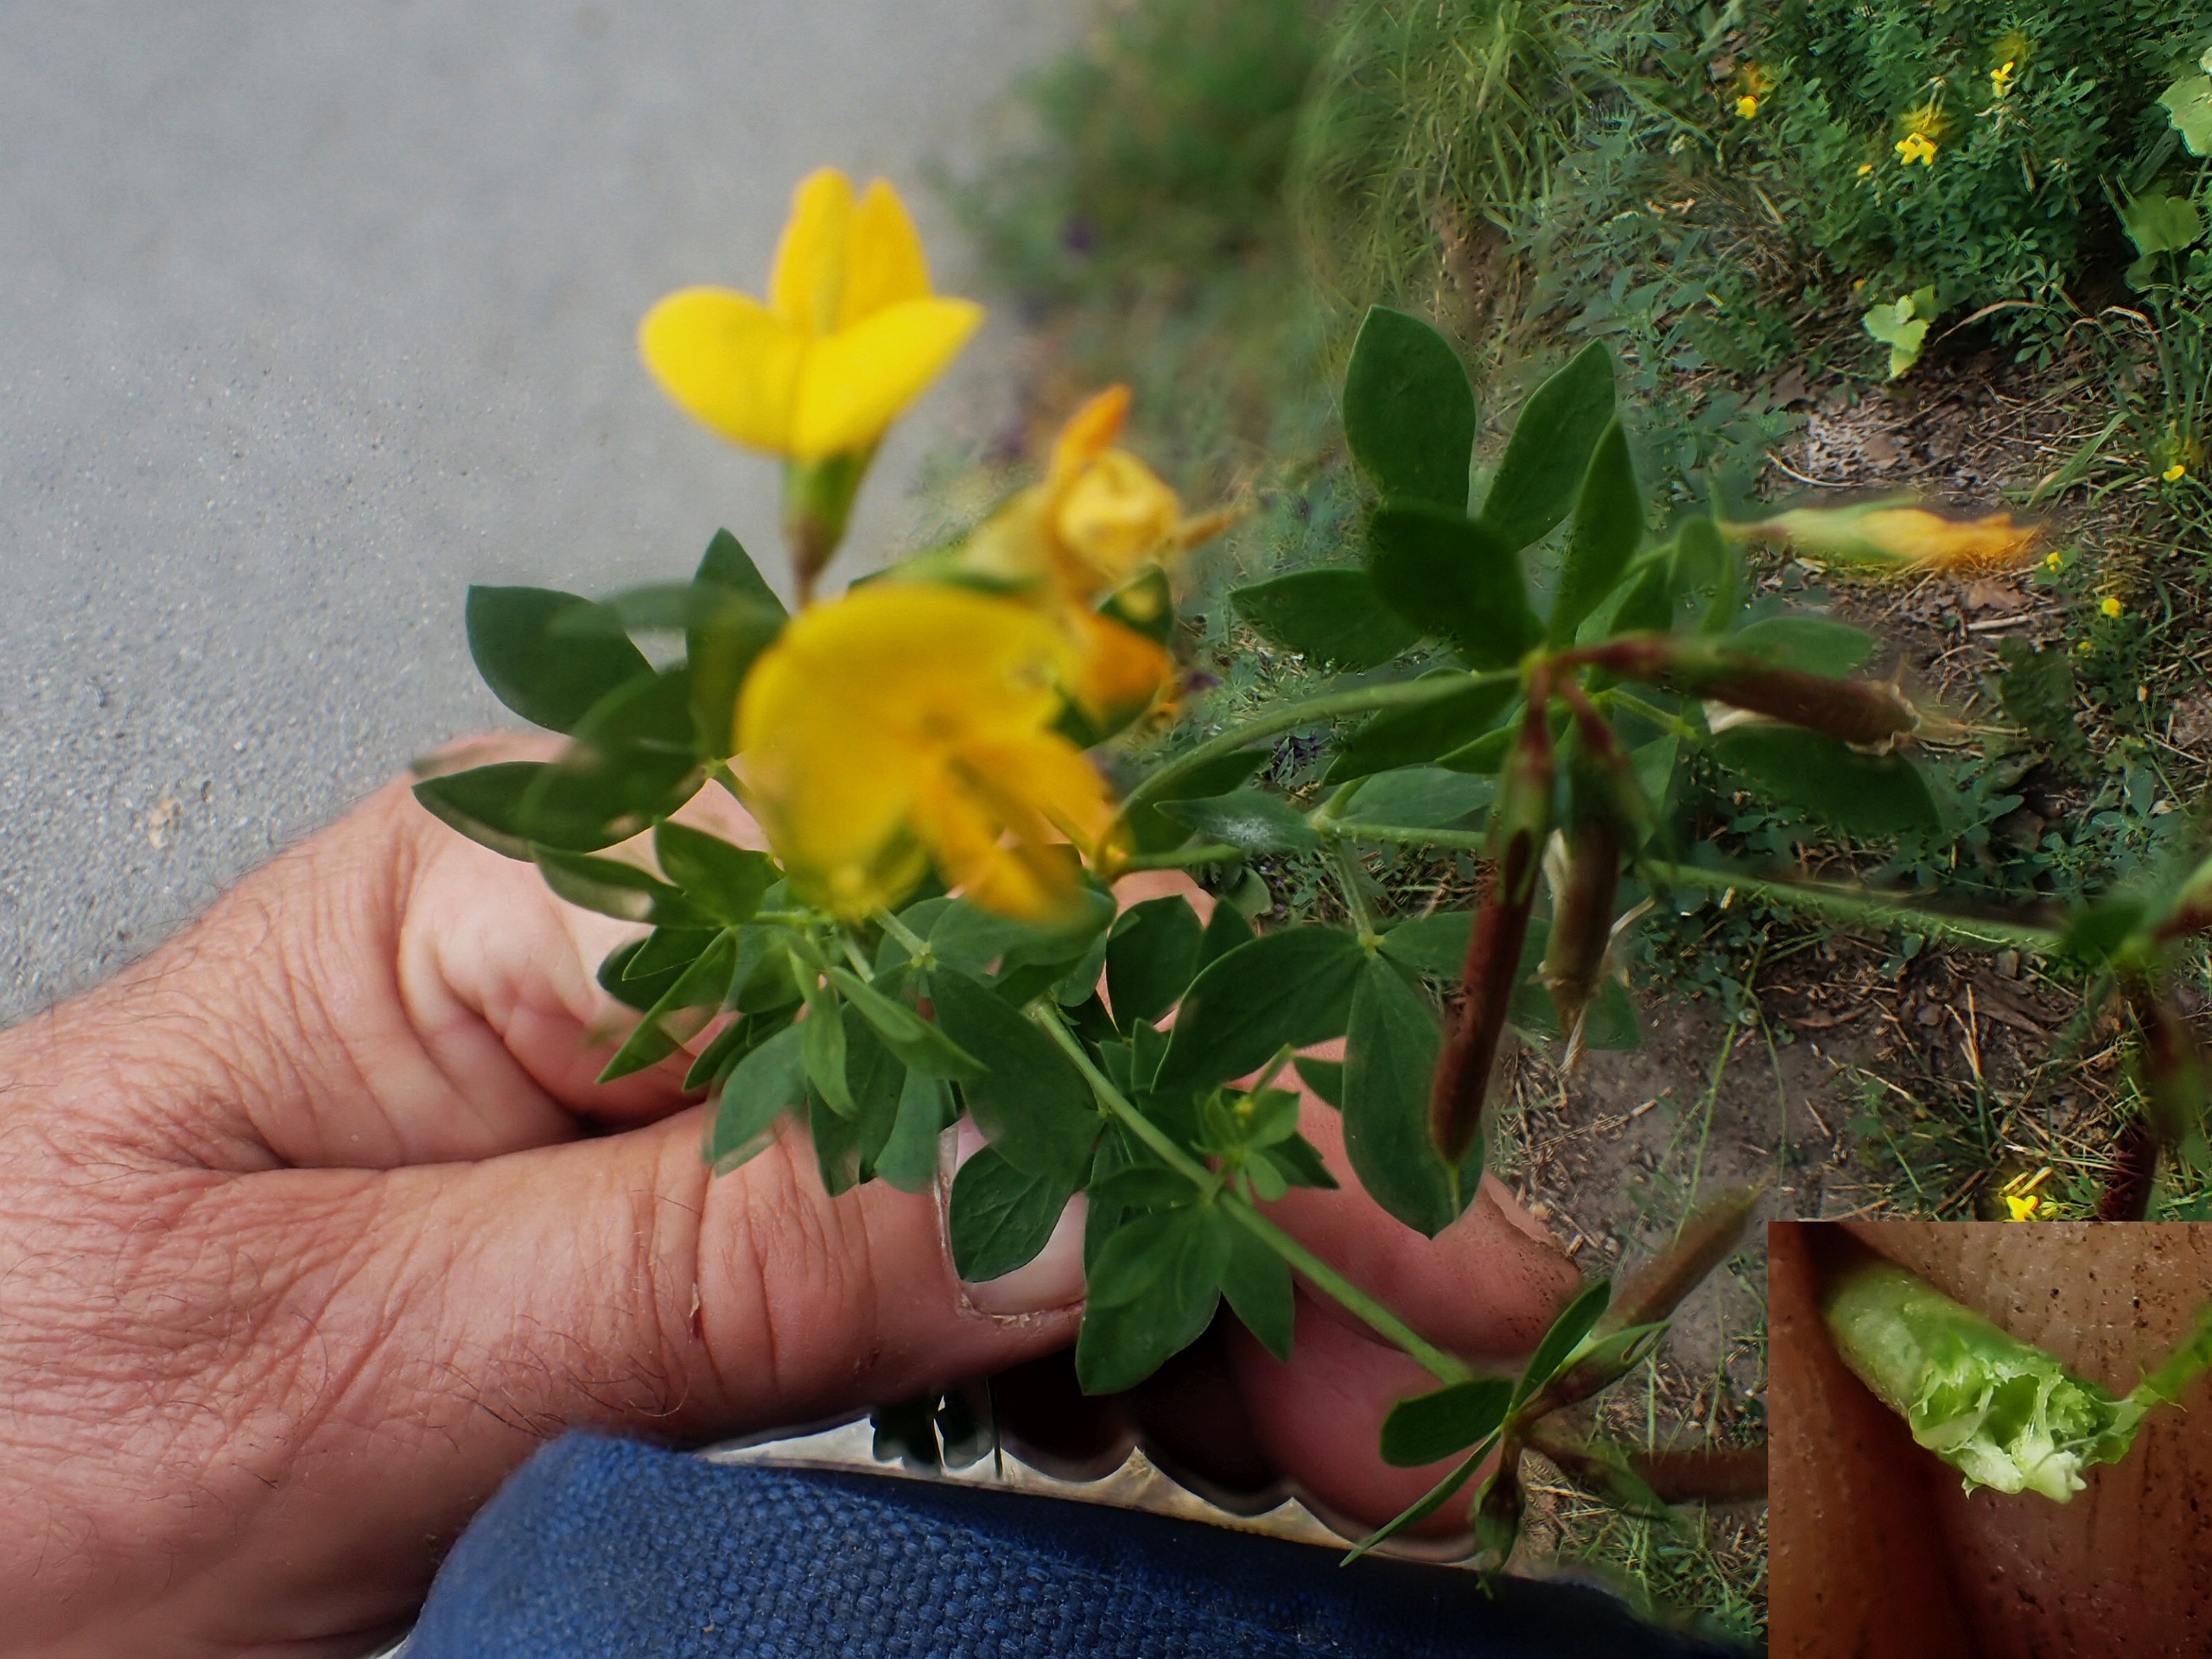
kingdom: Plantae
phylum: Tracheophyta
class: Magnoliopsida
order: Fabales
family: Fabaceae
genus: Lotus
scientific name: Lotus corniculatus
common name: Foder-kællingetand
